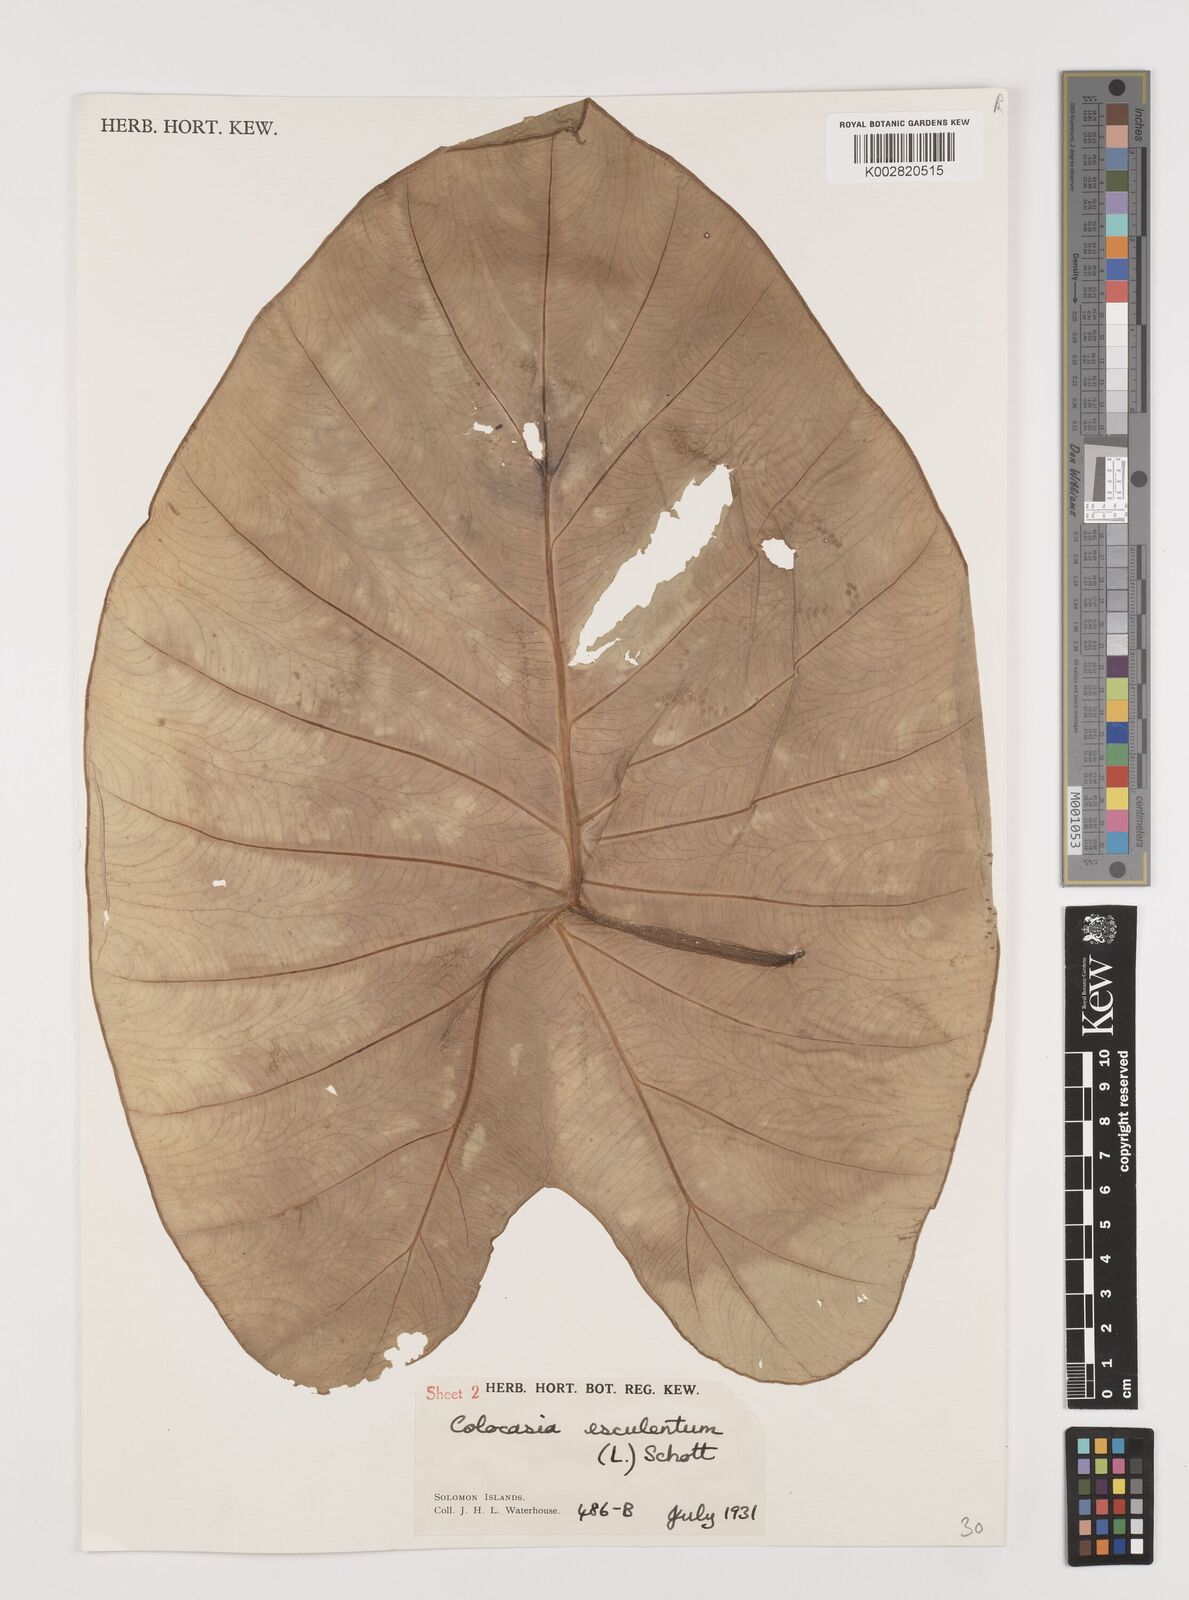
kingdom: Plantae
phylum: Tracheophyta
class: Liliopsida
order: Alismatales
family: Araceae
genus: Colocasia
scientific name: Colocasia esculenta
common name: Taro
